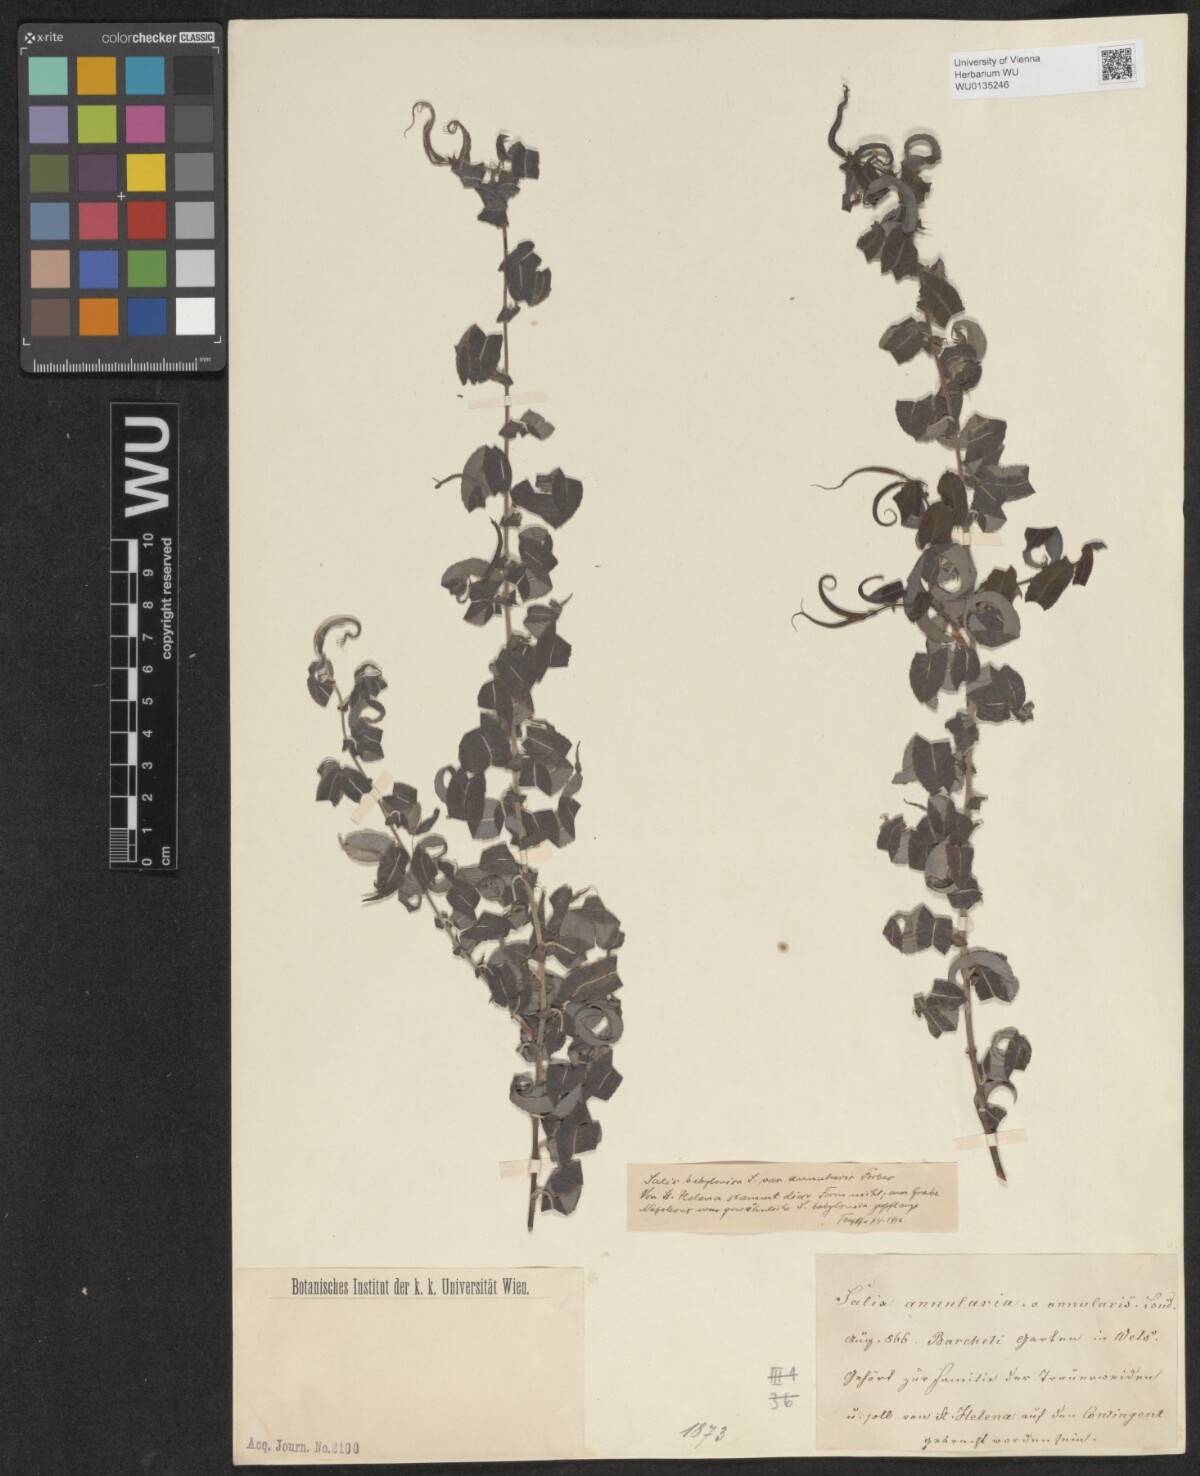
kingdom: Plantae
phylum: Tracheophyta
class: Magnoliopsida
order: Malpighiales
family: Salicaceae
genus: Salix
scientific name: Salix babylonica
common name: Weeping willow
